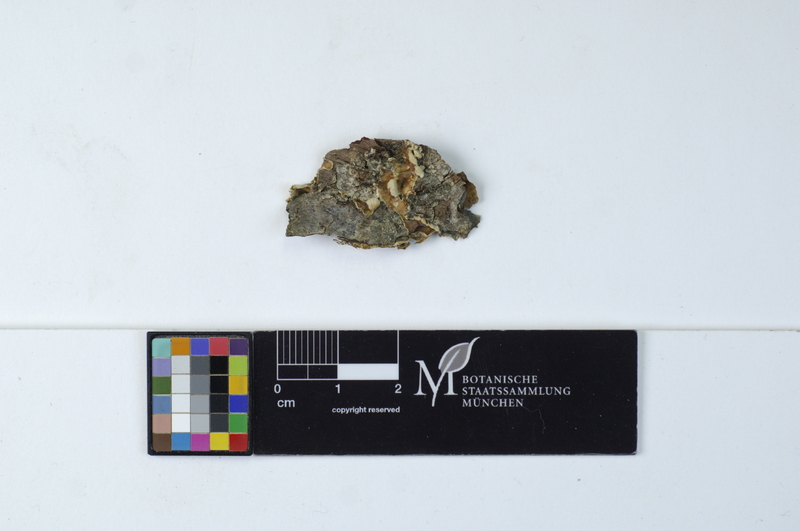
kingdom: Fungi
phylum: Basidiomycota
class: Agaricomycetes
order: Polyporales
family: Meruliaceae
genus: Phlebia
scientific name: Phlebia albomellea
